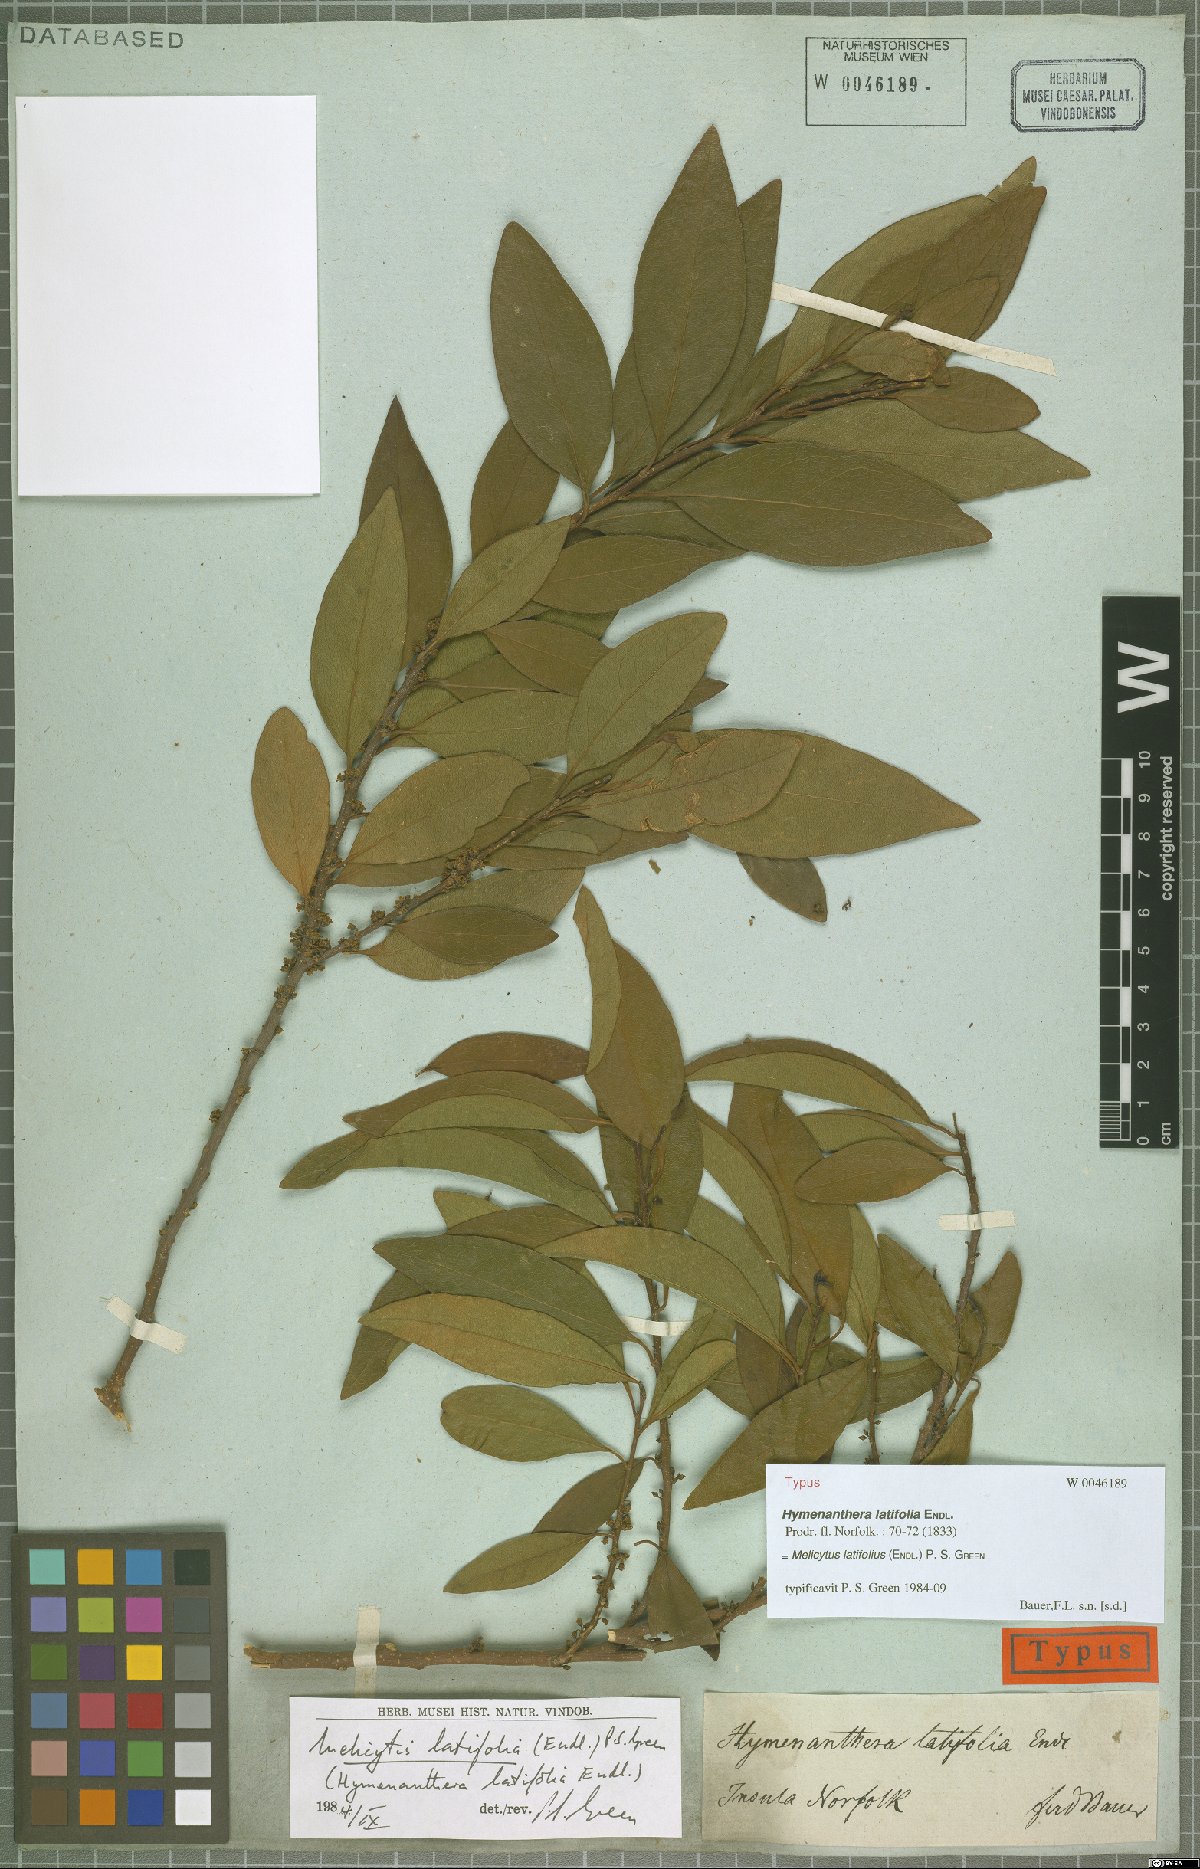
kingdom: Plantae
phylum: Tracheophyta
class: Magnoliopsida
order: Malpighiales
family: Violaceae
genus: Melicytus
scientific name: Melicytus latifolius
